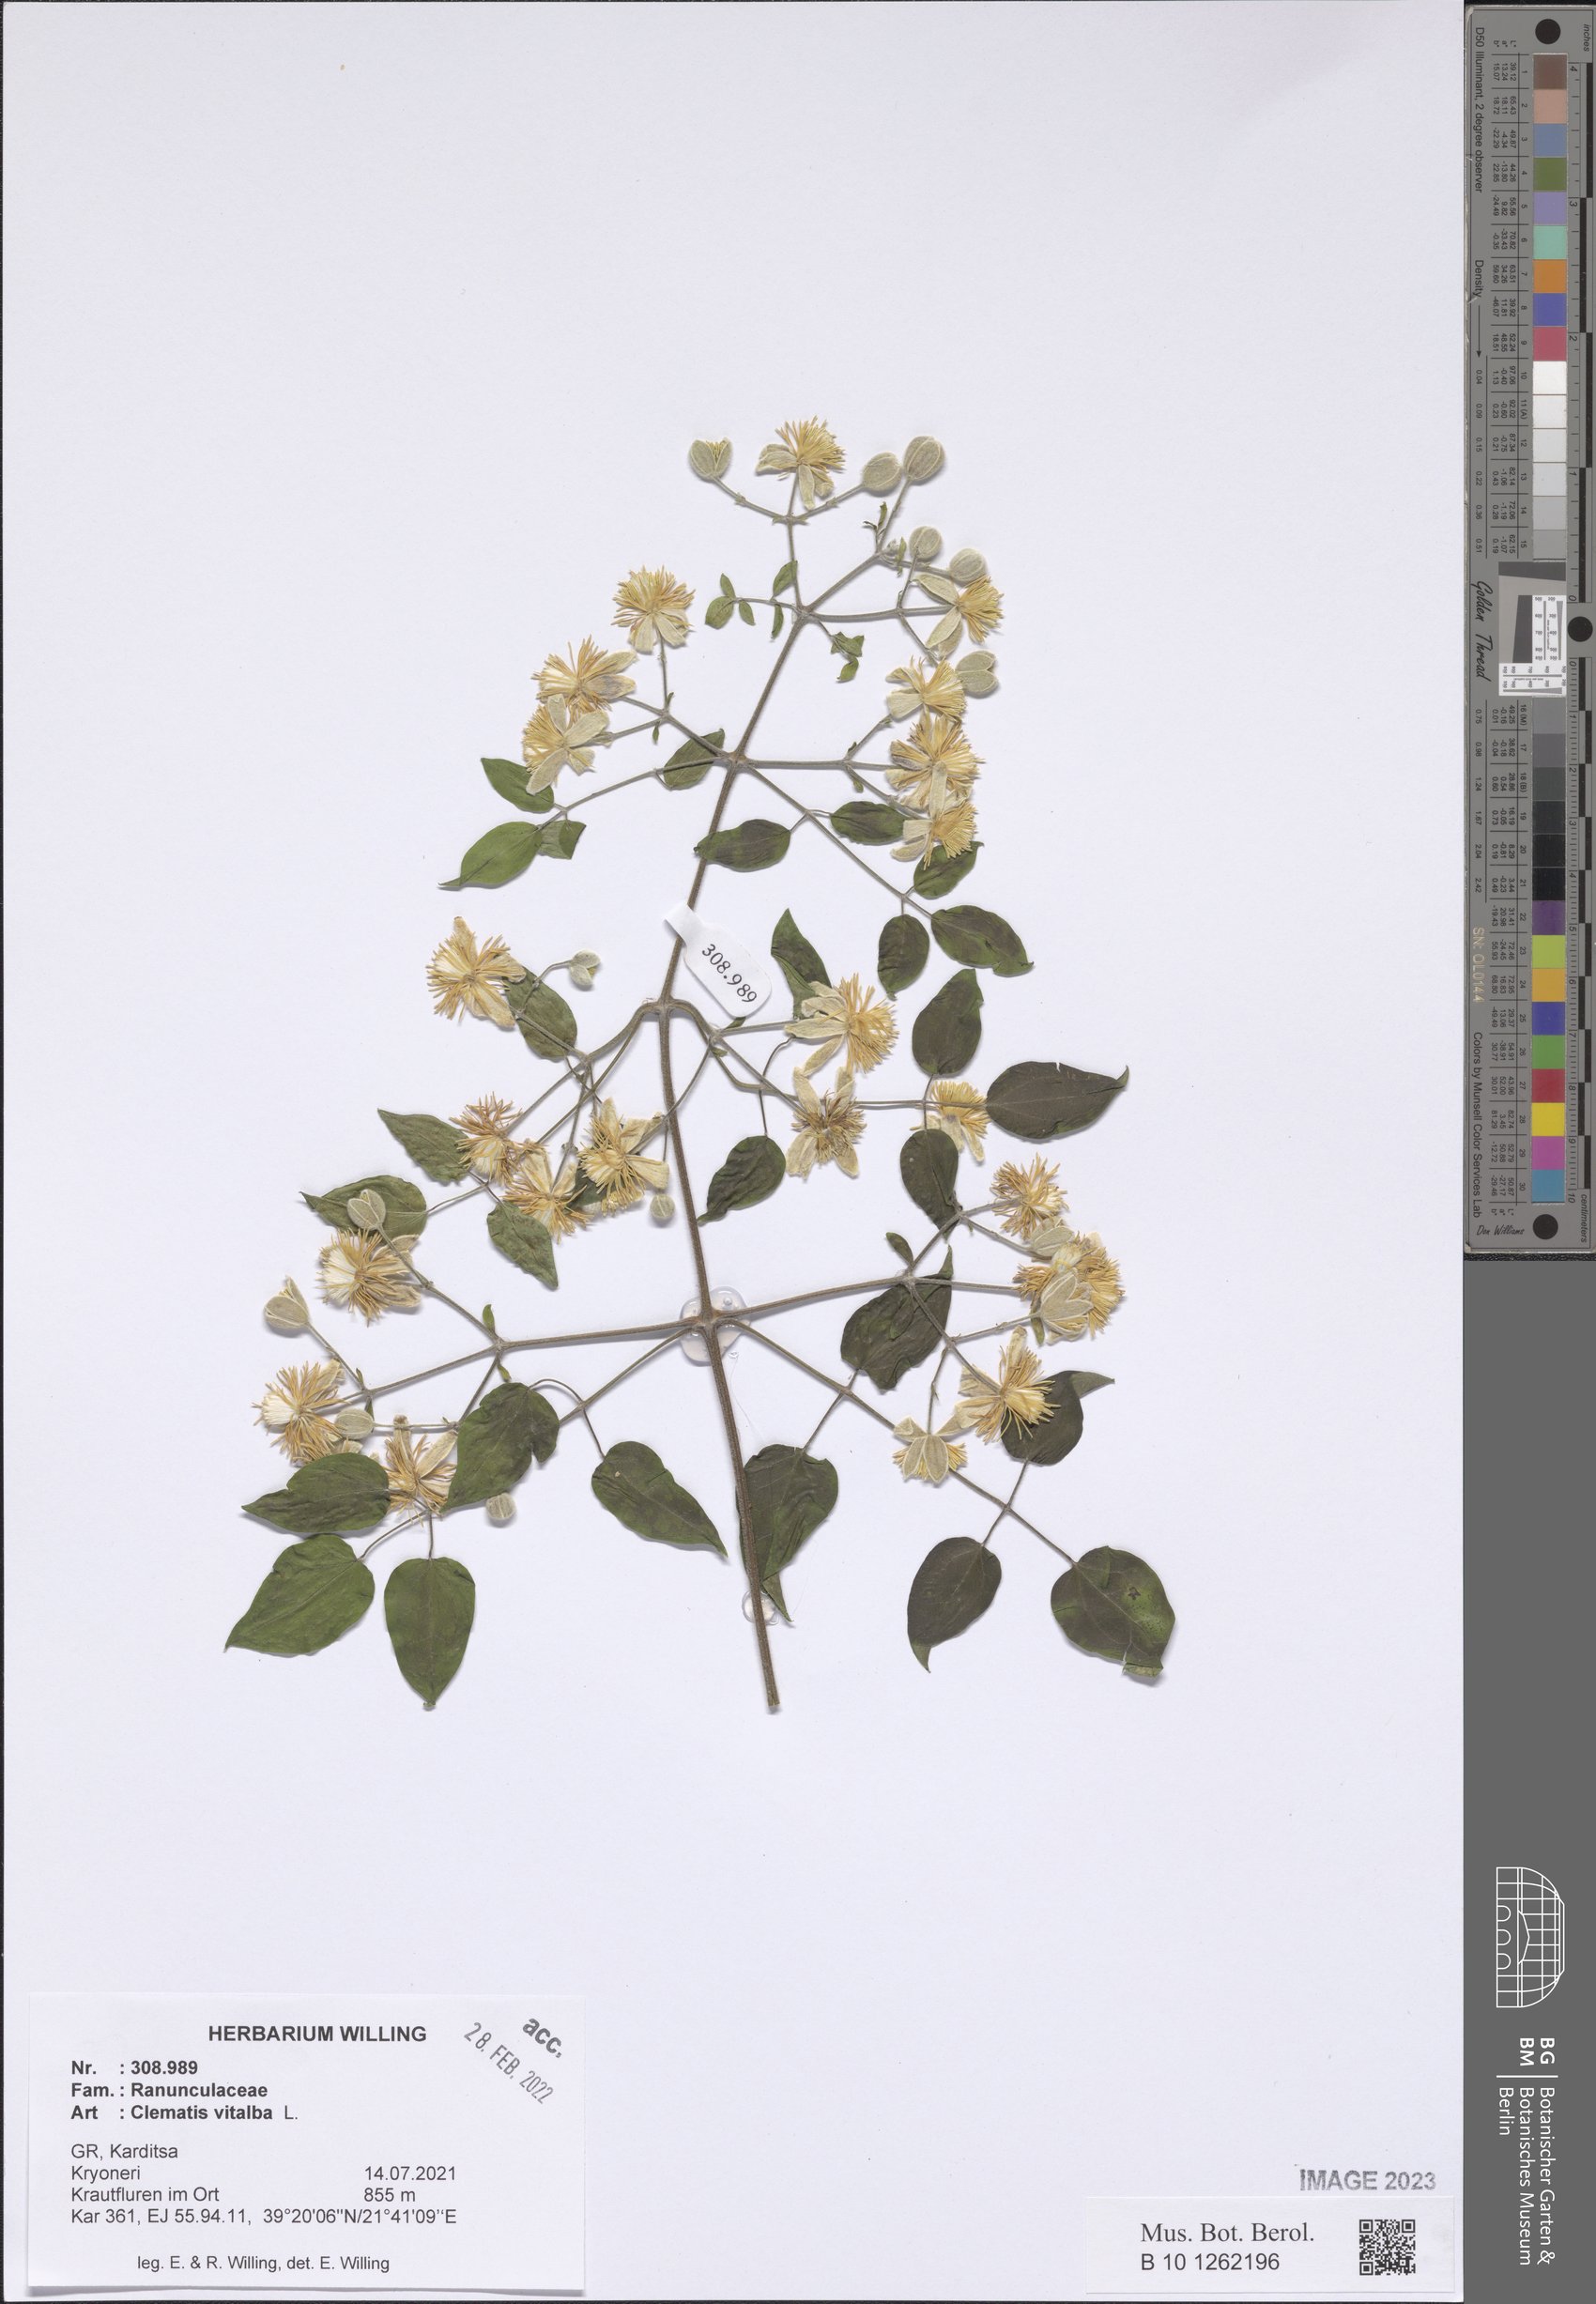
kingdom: Plantae
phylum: Tracheophyta
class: Magnoliopsida
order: Ranunculales
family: Ranunculaceae
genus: Clematis
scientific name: Clematis vitalba
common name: Evergreen clematis
